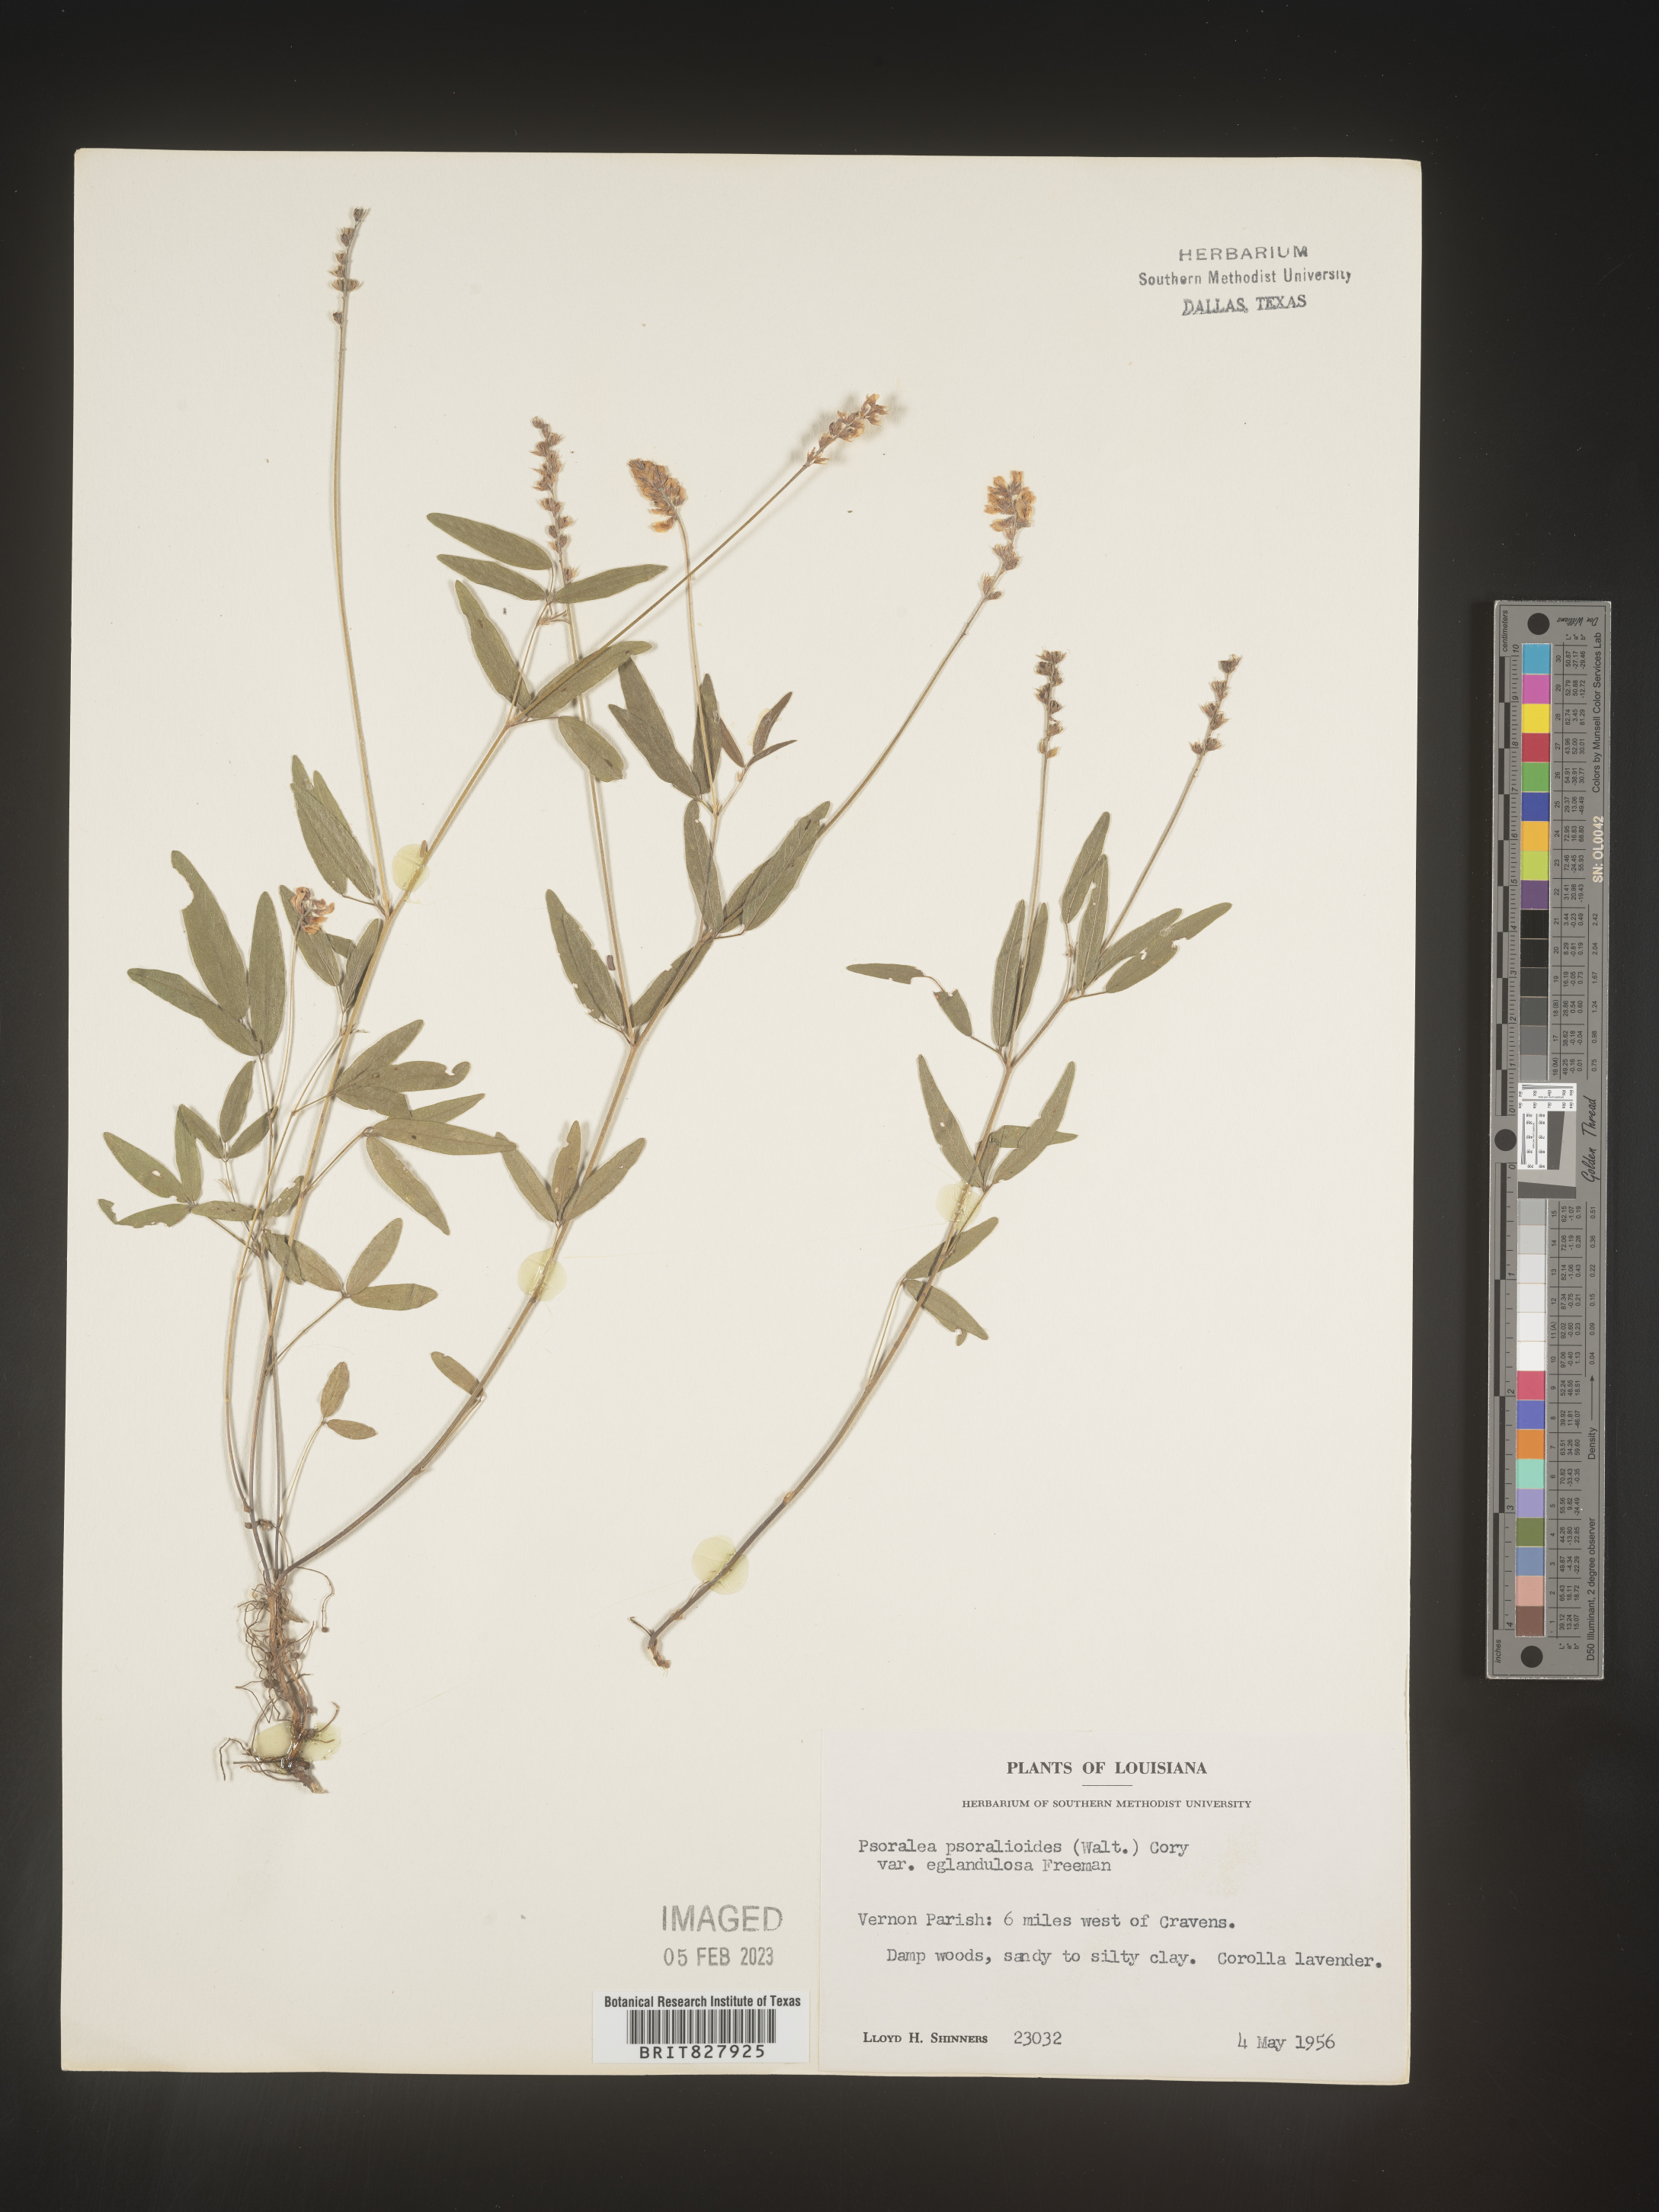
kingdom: Plantae
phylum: Tracheophyta
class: Magnoliopsida
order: Fabales
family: Fabaceae
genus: Orbexilum
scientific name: Orbexilum pedunculatum
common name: Sampson's snakeroot
